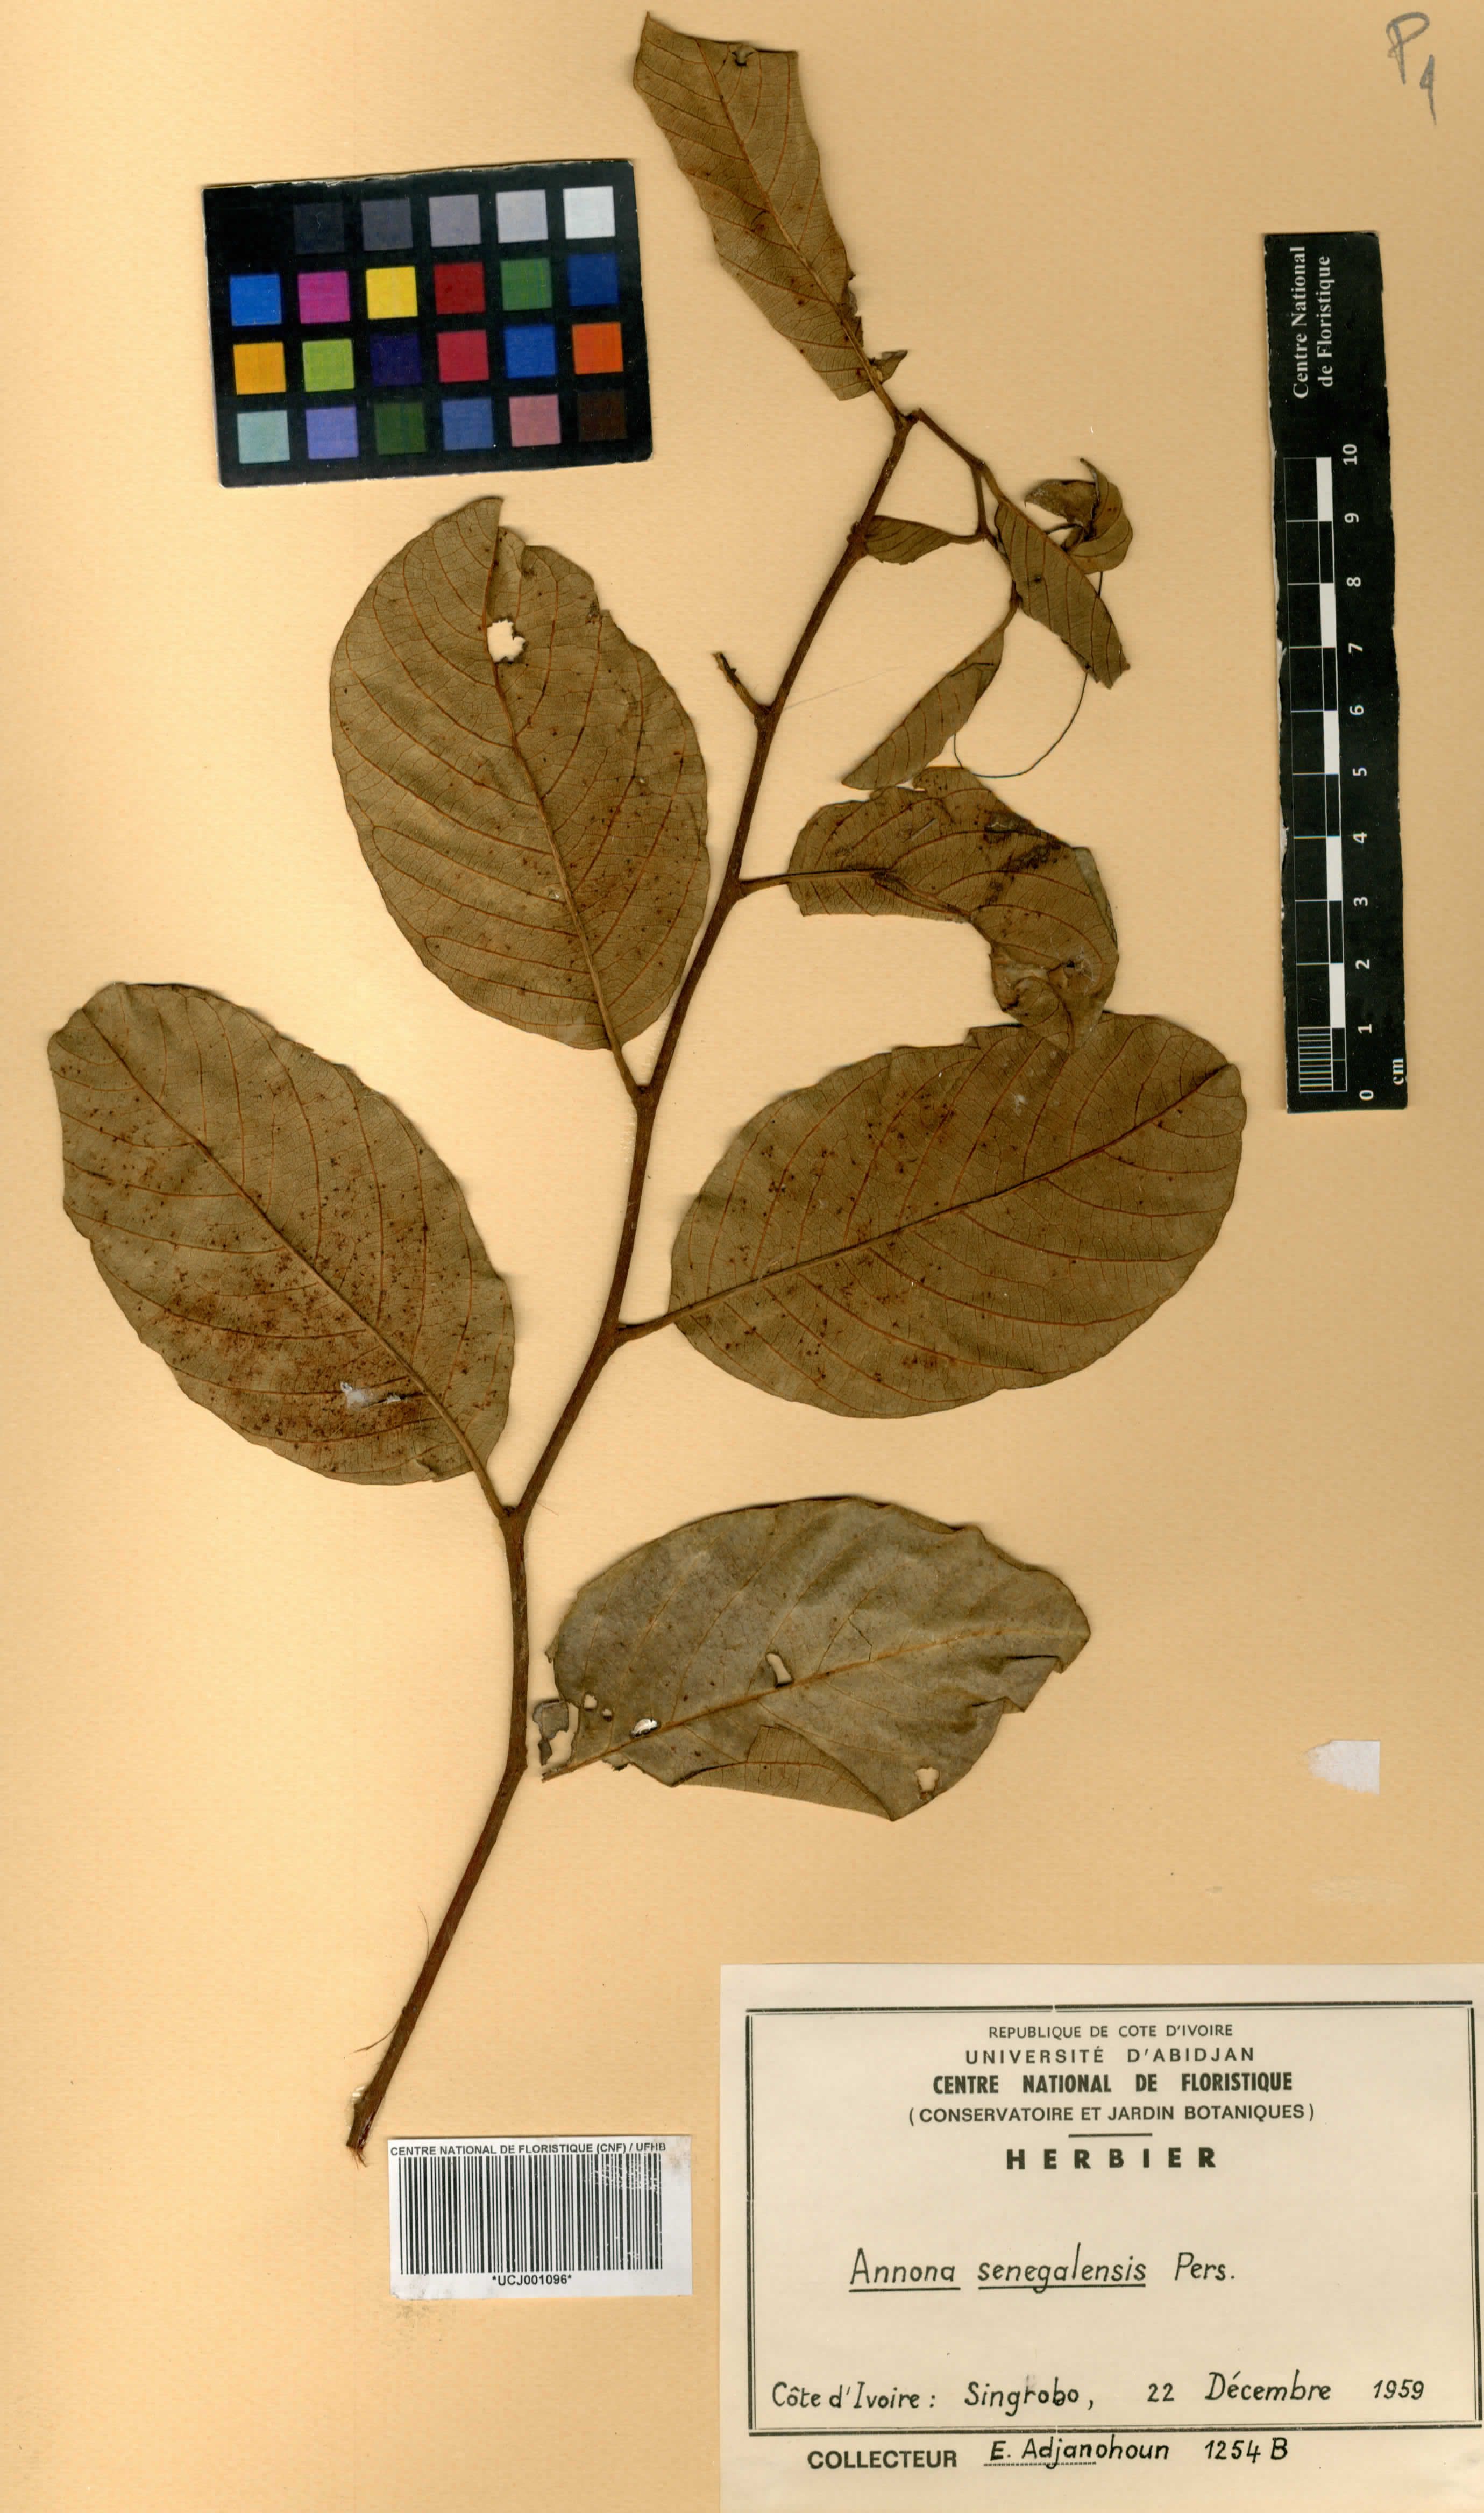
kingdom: Plantae
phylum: Tracheophyta
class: Magnoliopsida
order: Magnoliales
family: Annonaceae
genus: Annona
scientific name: Annona senegalensis
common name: Wild custard-apple
